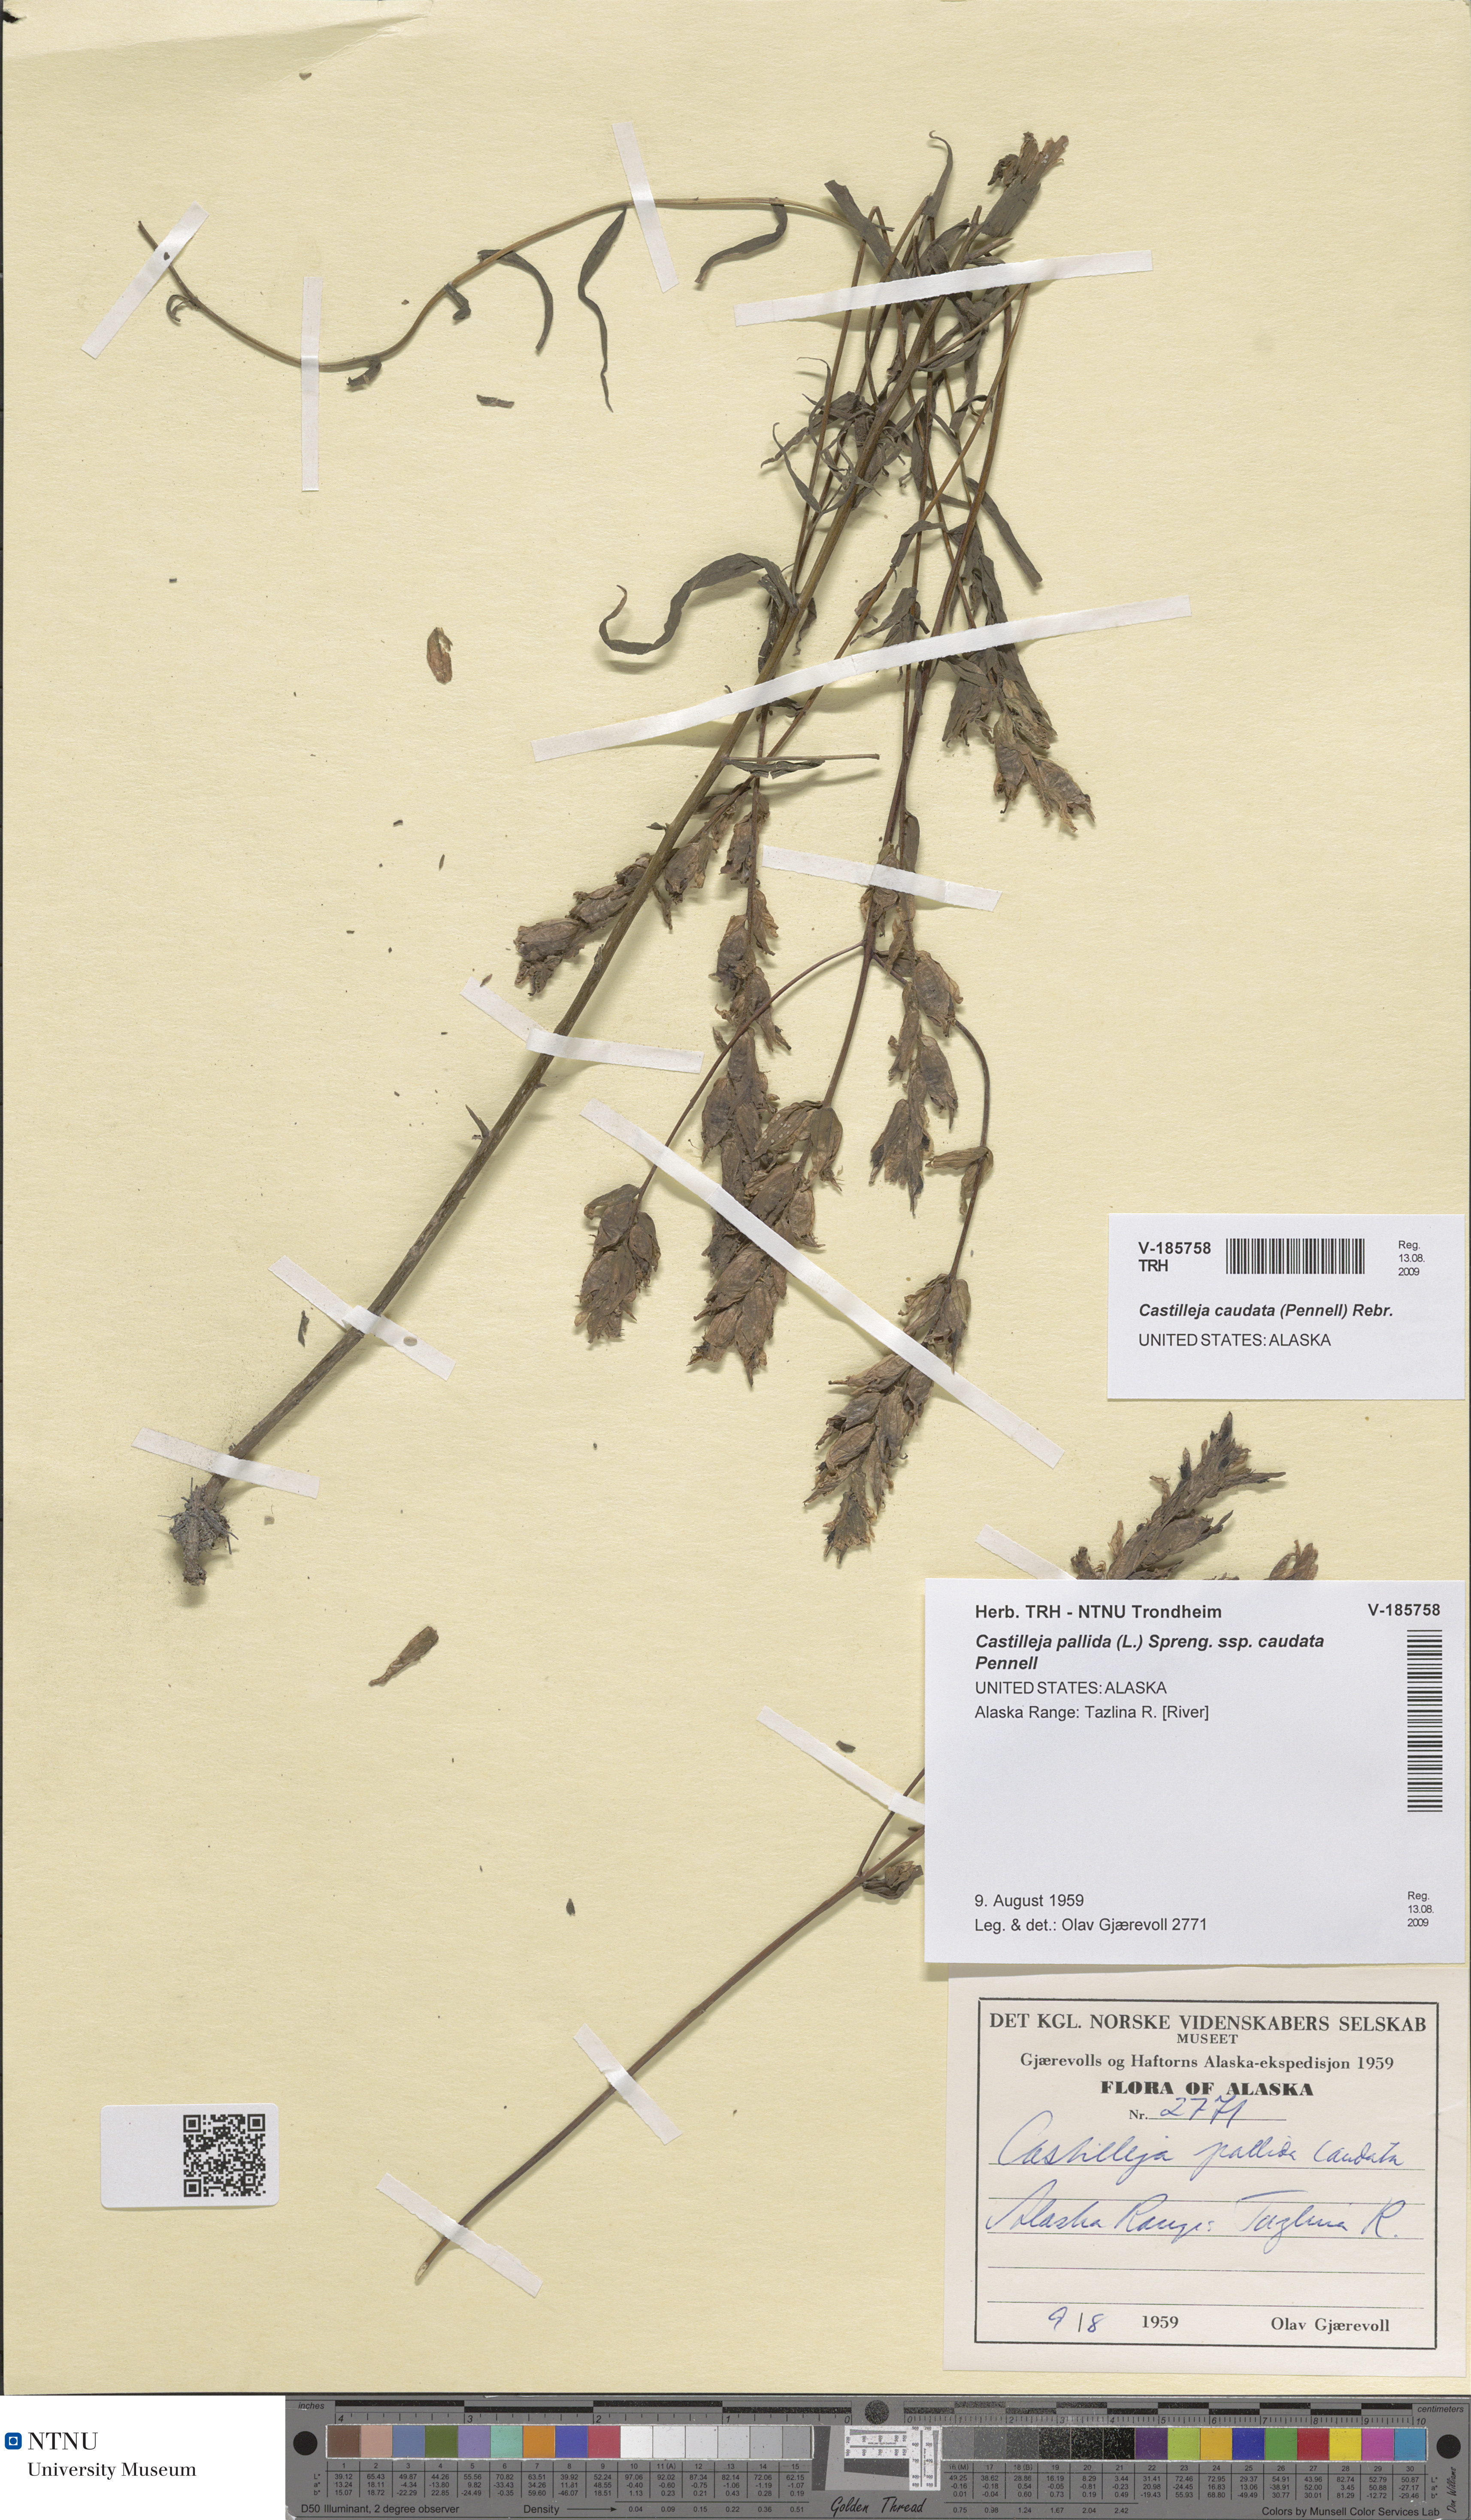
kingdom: Plantae
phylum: Tracheophyta
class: Magnoliopsida
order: Lamiales
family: Orobanchaceae
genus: Castilleja
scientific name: Castilleja pallida
